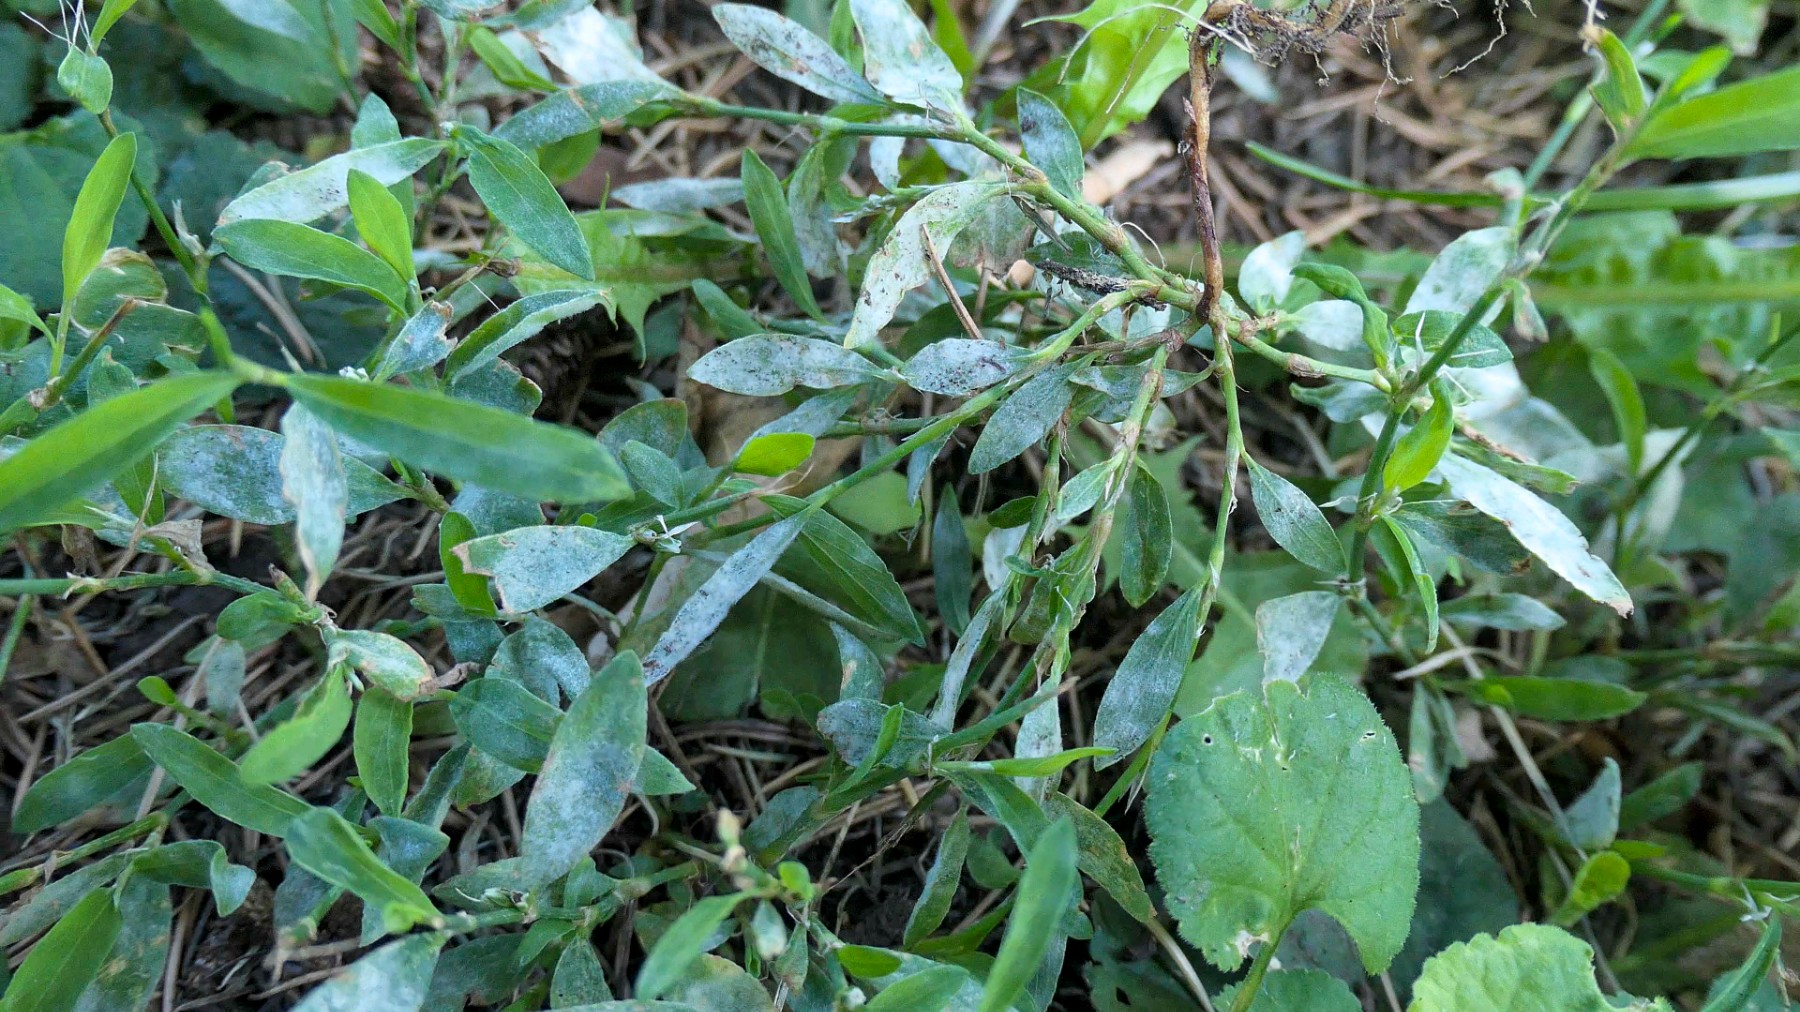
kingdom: Fungi
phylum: Ascomycota
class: Leotiomycetes
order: Helotiales
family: Erysiphaceae
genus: Erysiphe
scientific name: Erysiphe polygoni
